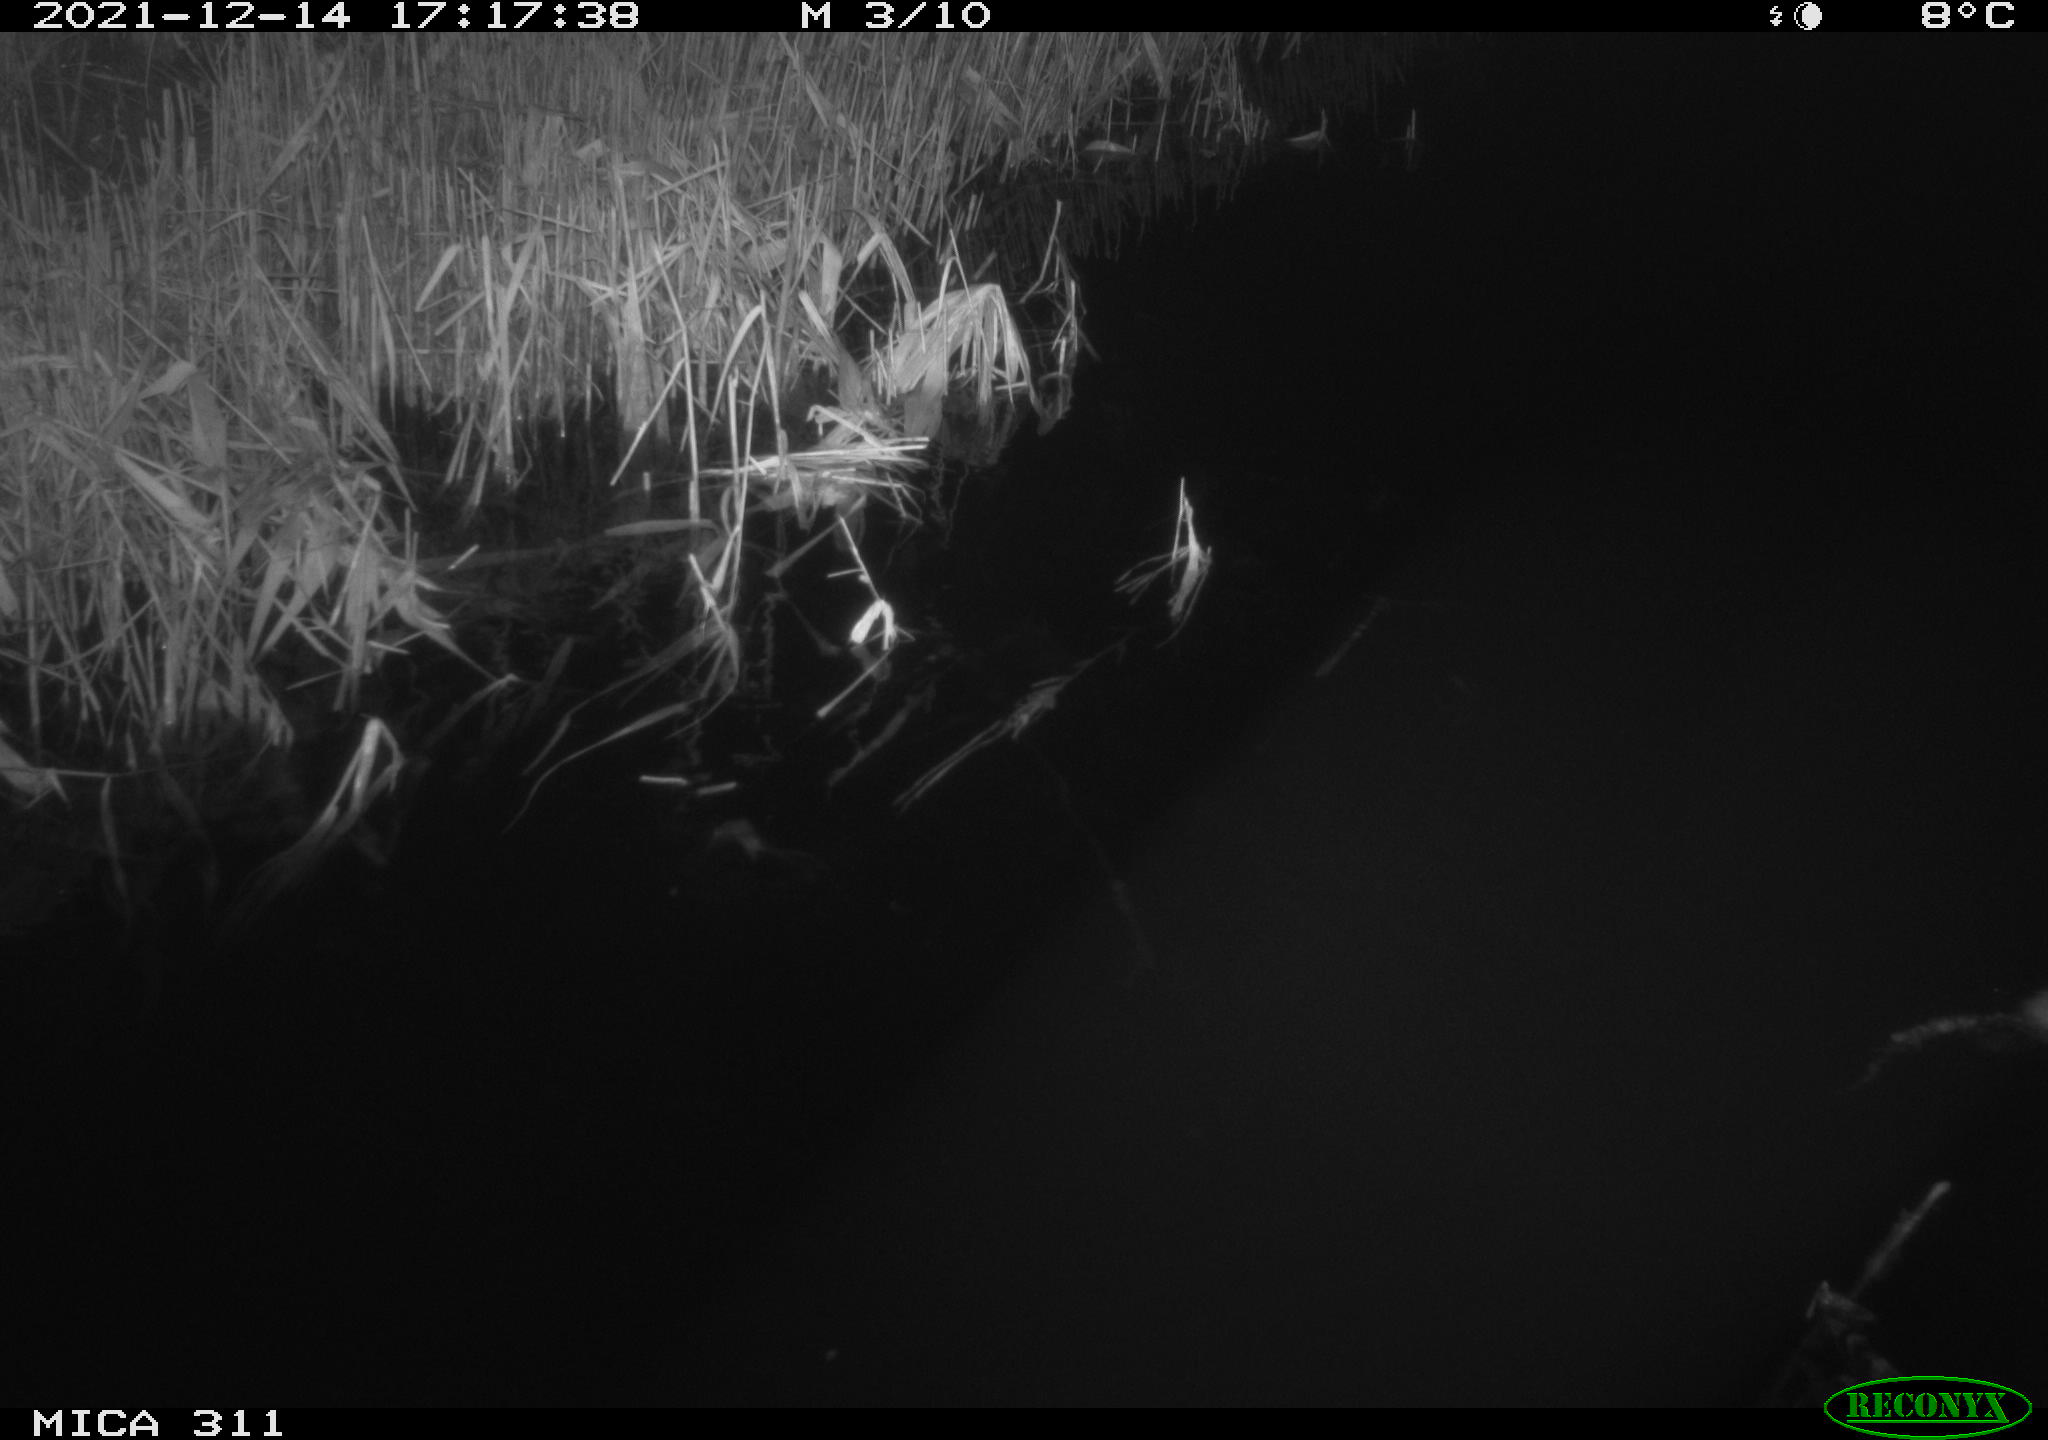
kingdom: Animalia
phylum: Chordata
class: Mammalia
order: Rodentia
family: Muridae
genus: Rattus
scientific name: Rattus norvegicus
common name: Brown rat
